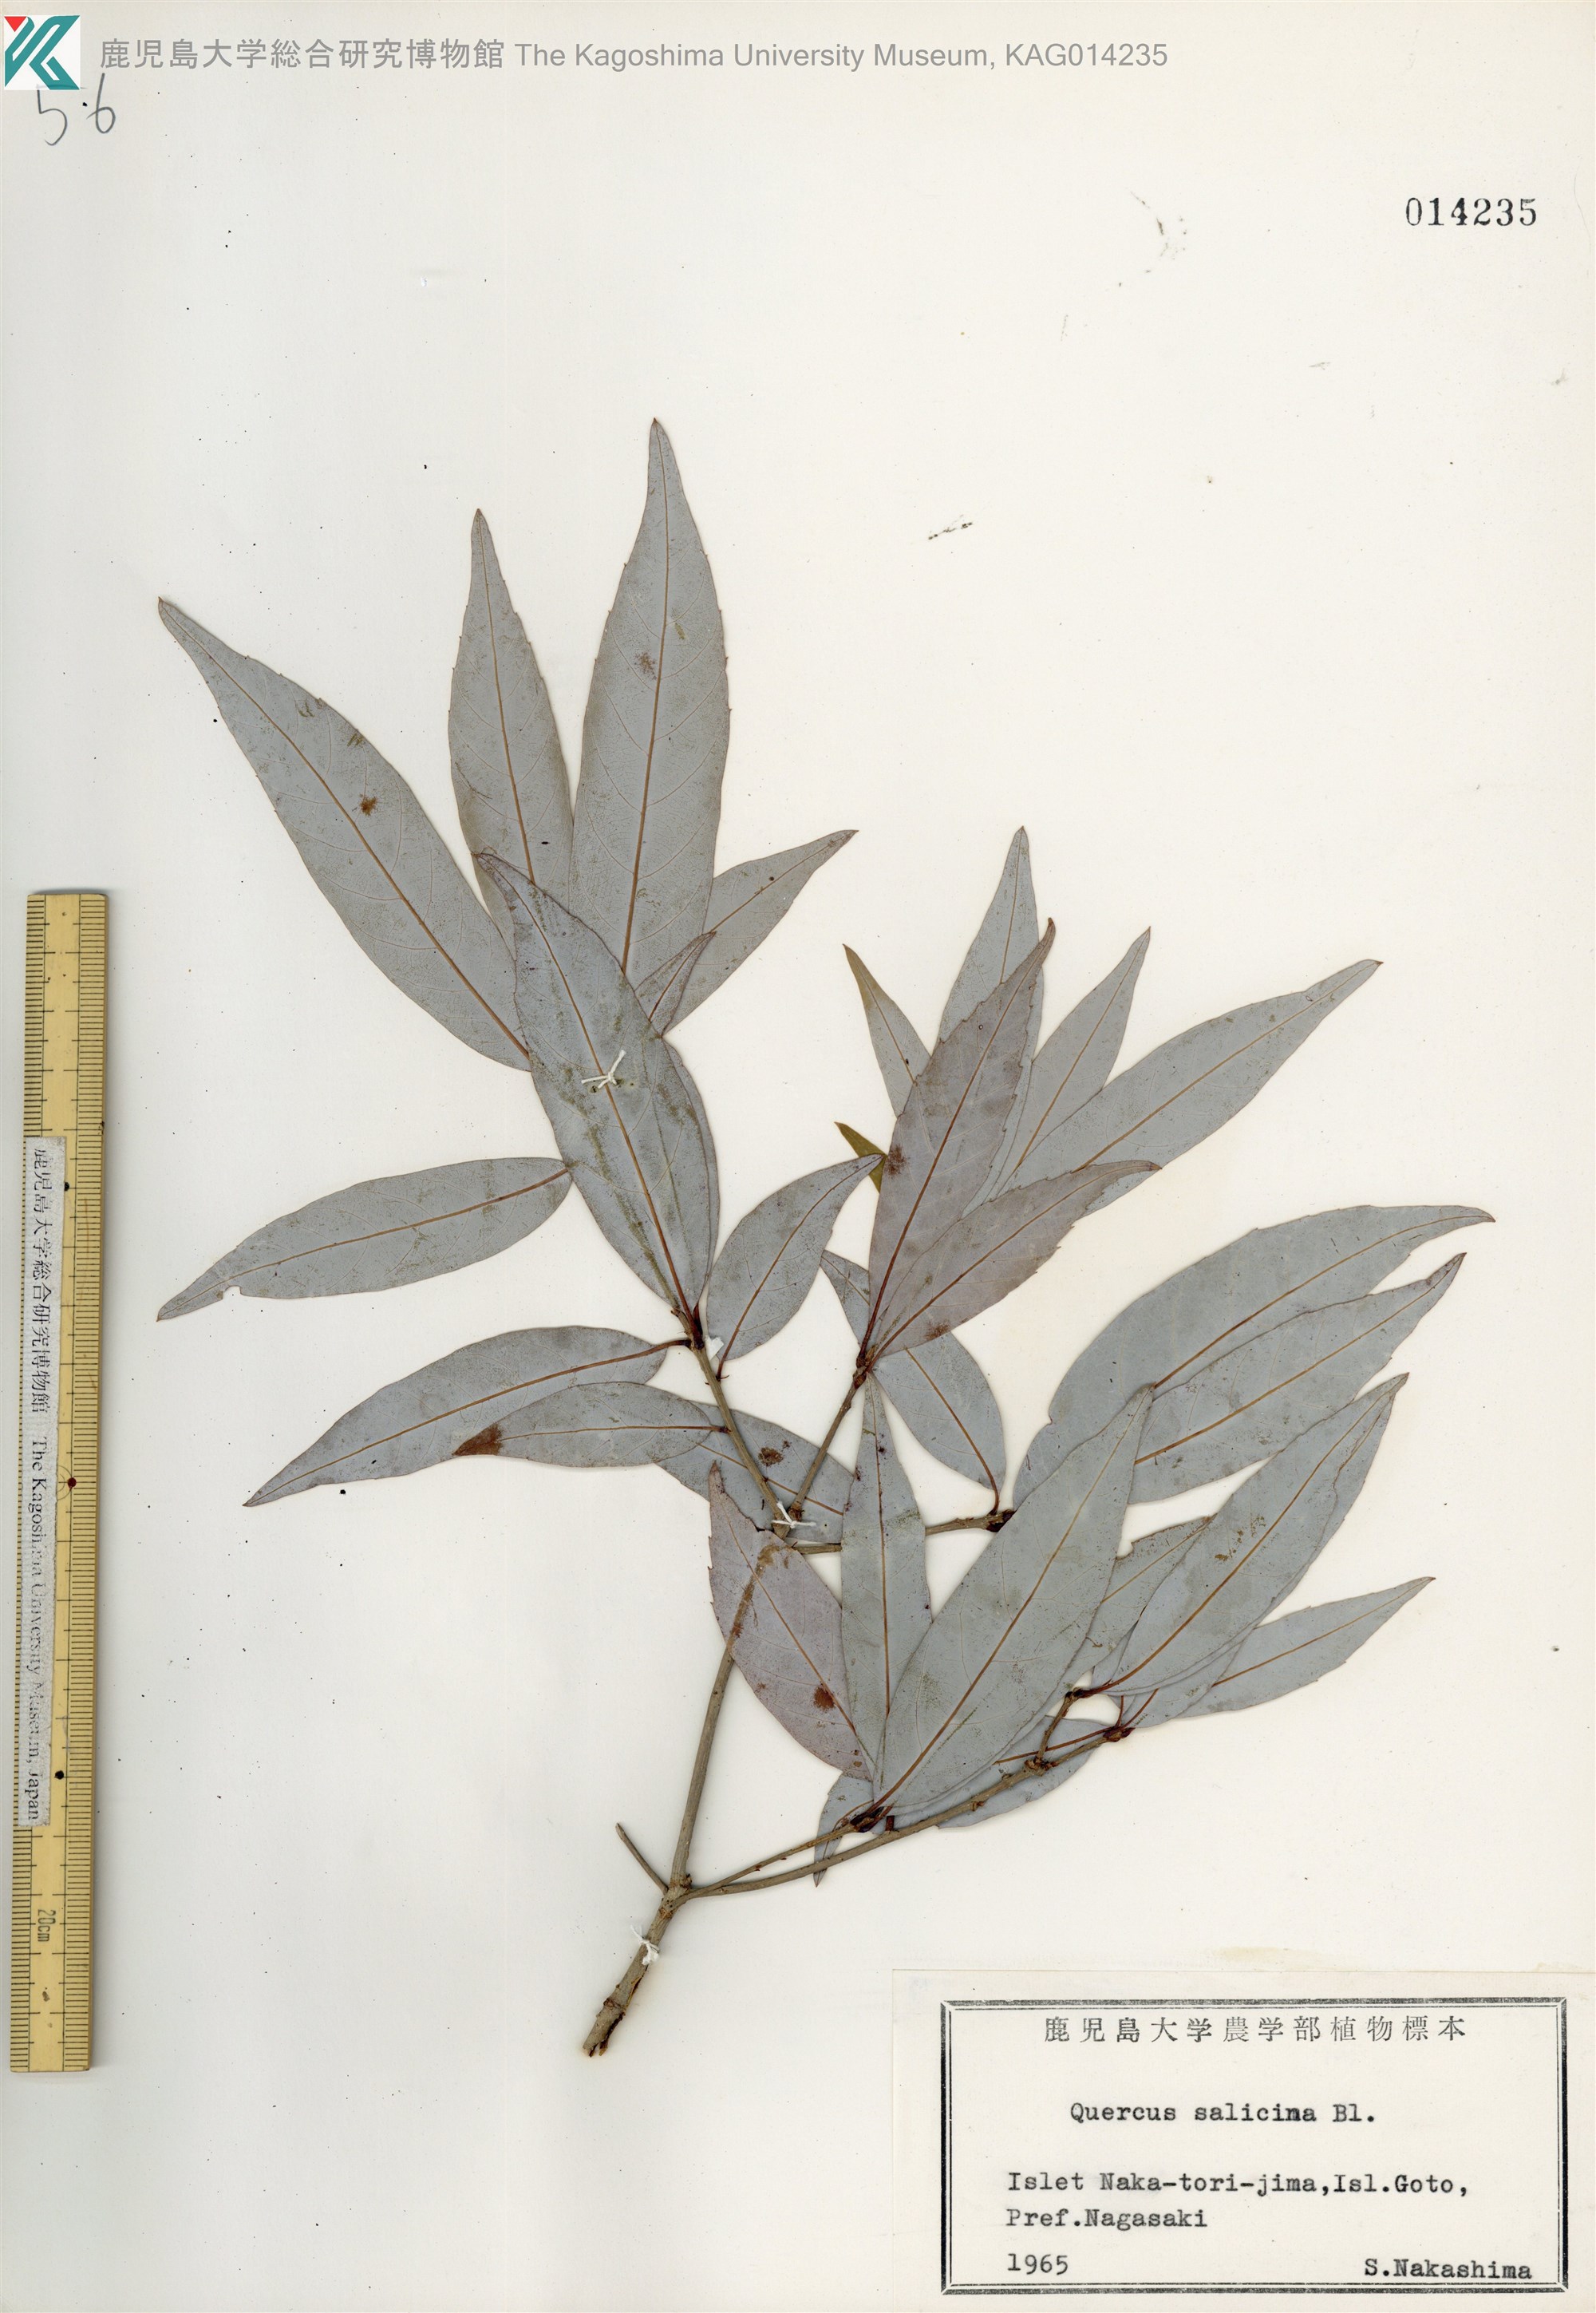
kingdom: Plantae
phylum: Tracheophyta
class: Magnoliopsida
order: Fagales
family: Fagaceae
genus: Quercus
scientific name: Quercus salicina
